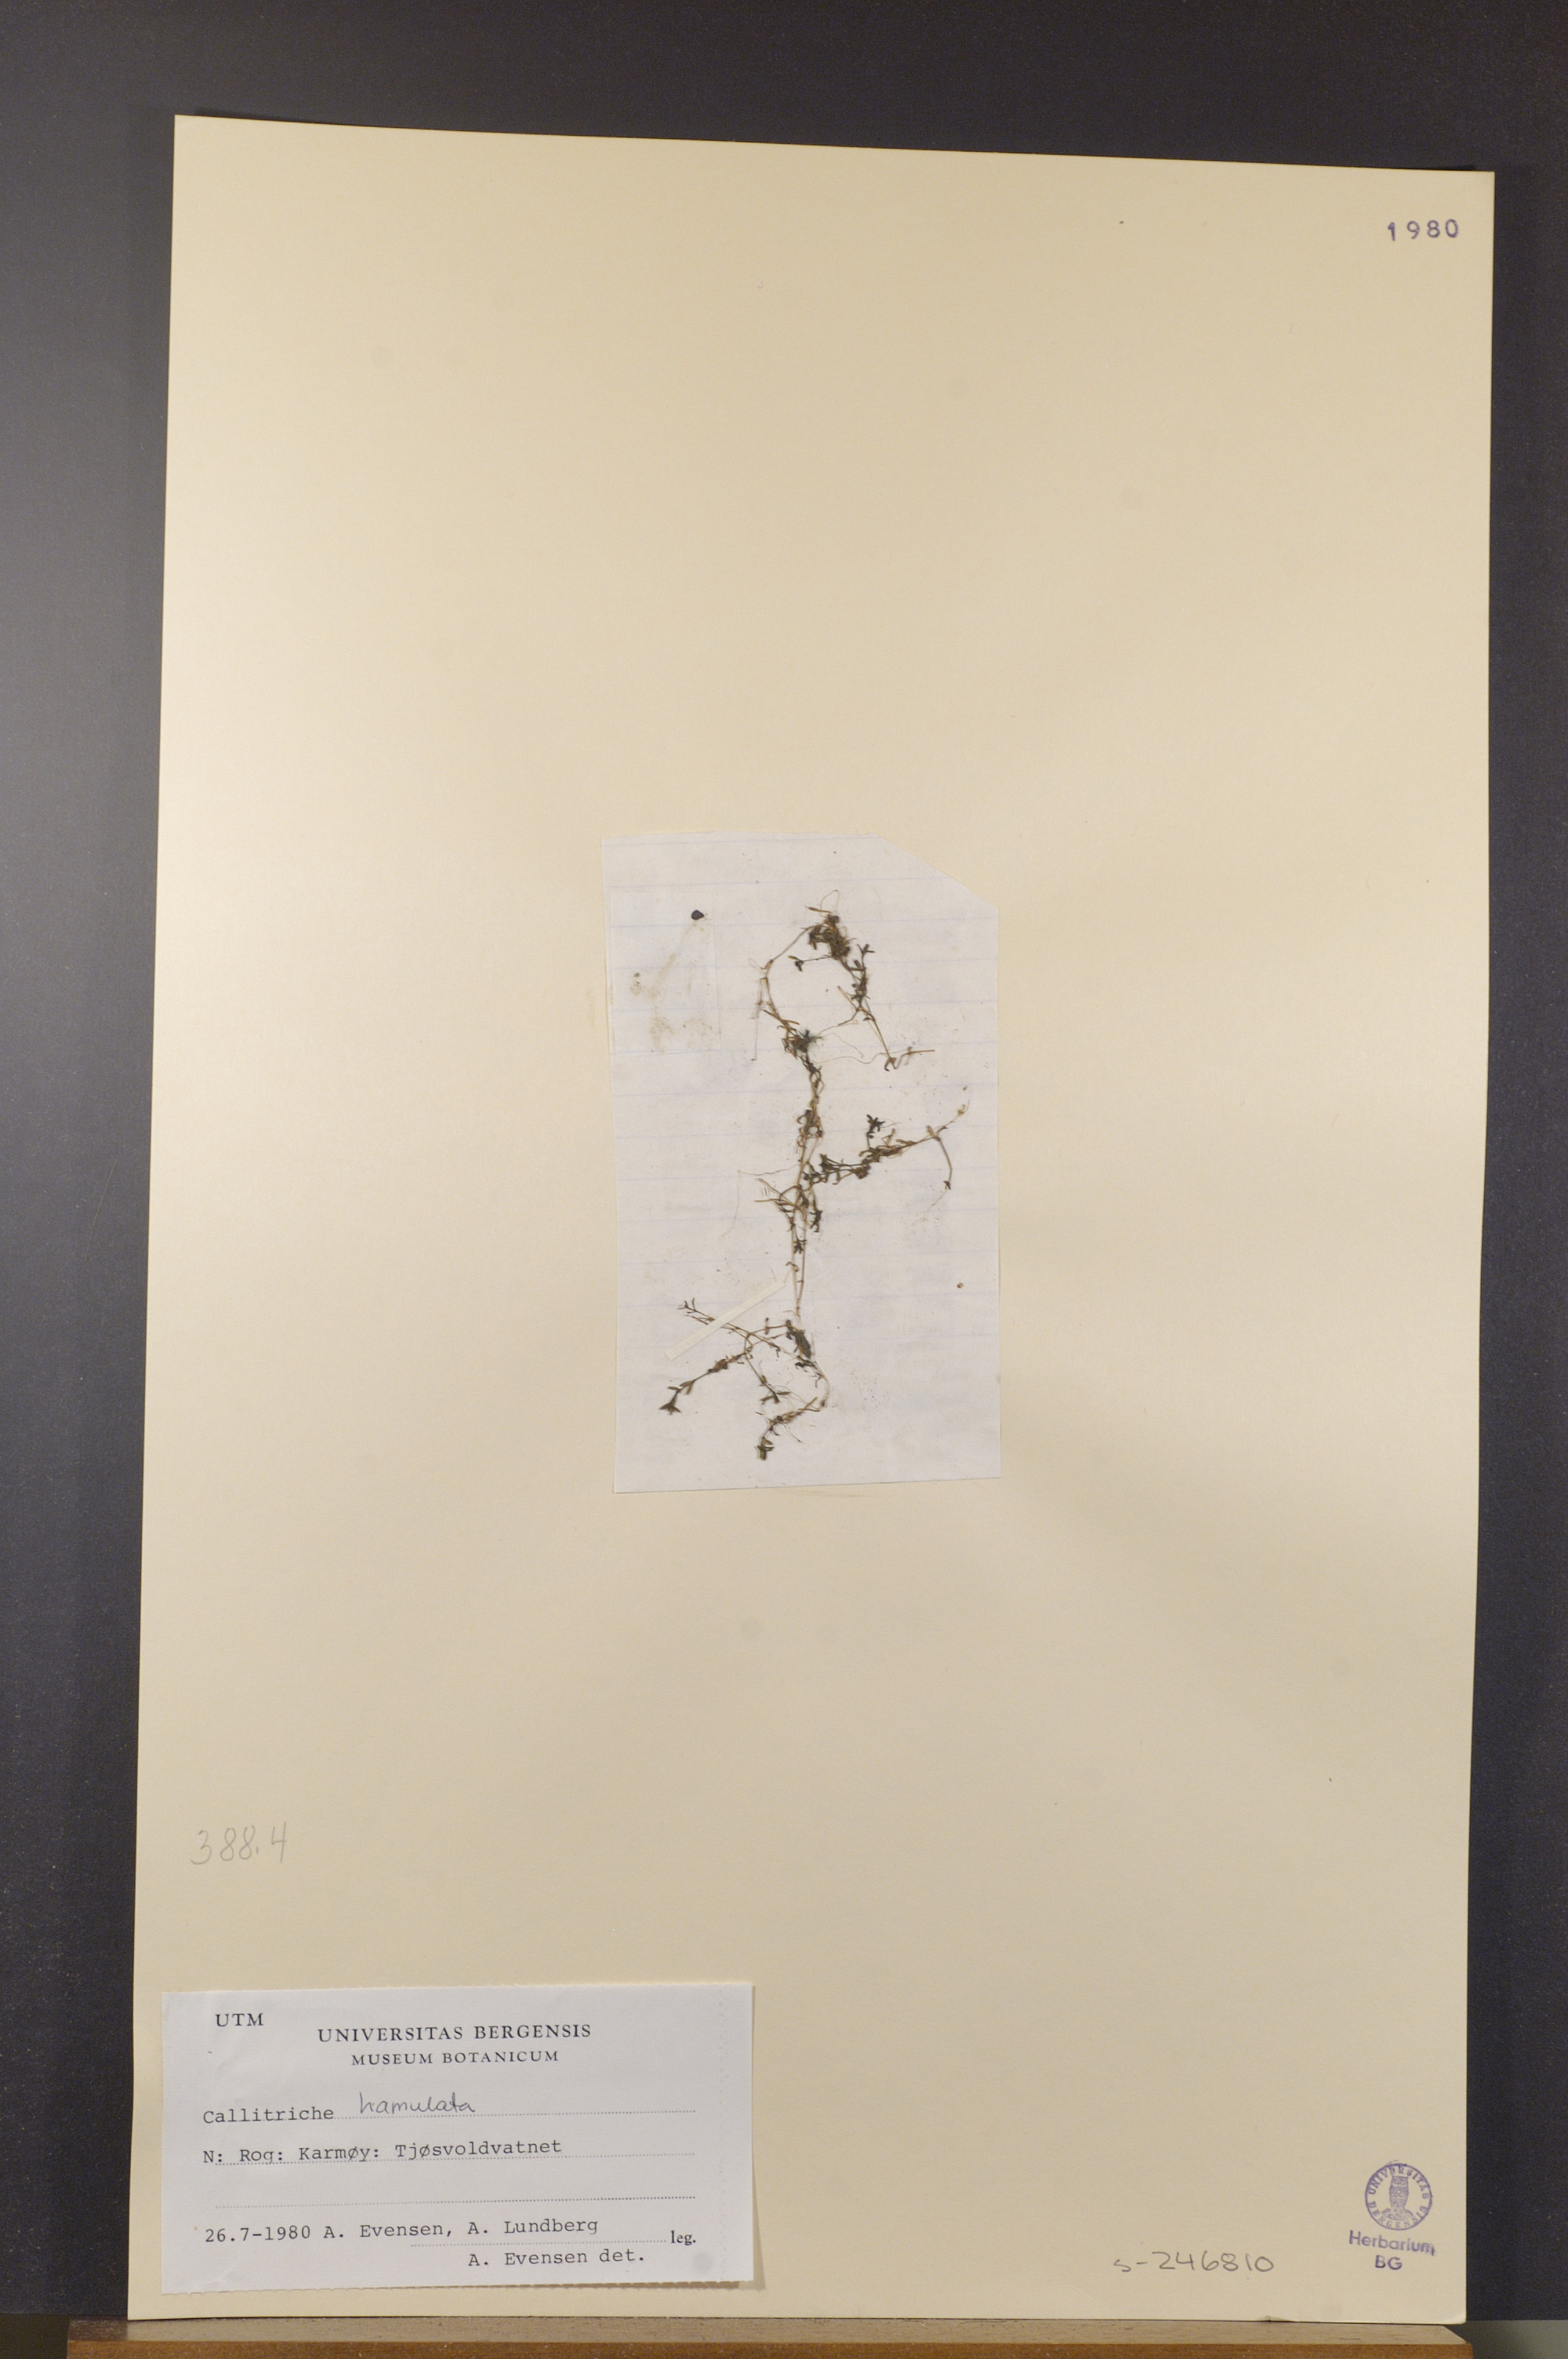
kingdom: Plantae
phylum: Tracheophyta
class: Magnoliopsida
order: Lamiales
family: Plantaginaceae
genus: Callitriche
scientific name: Callitriche hamulata
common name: Intermediate water-starwort
